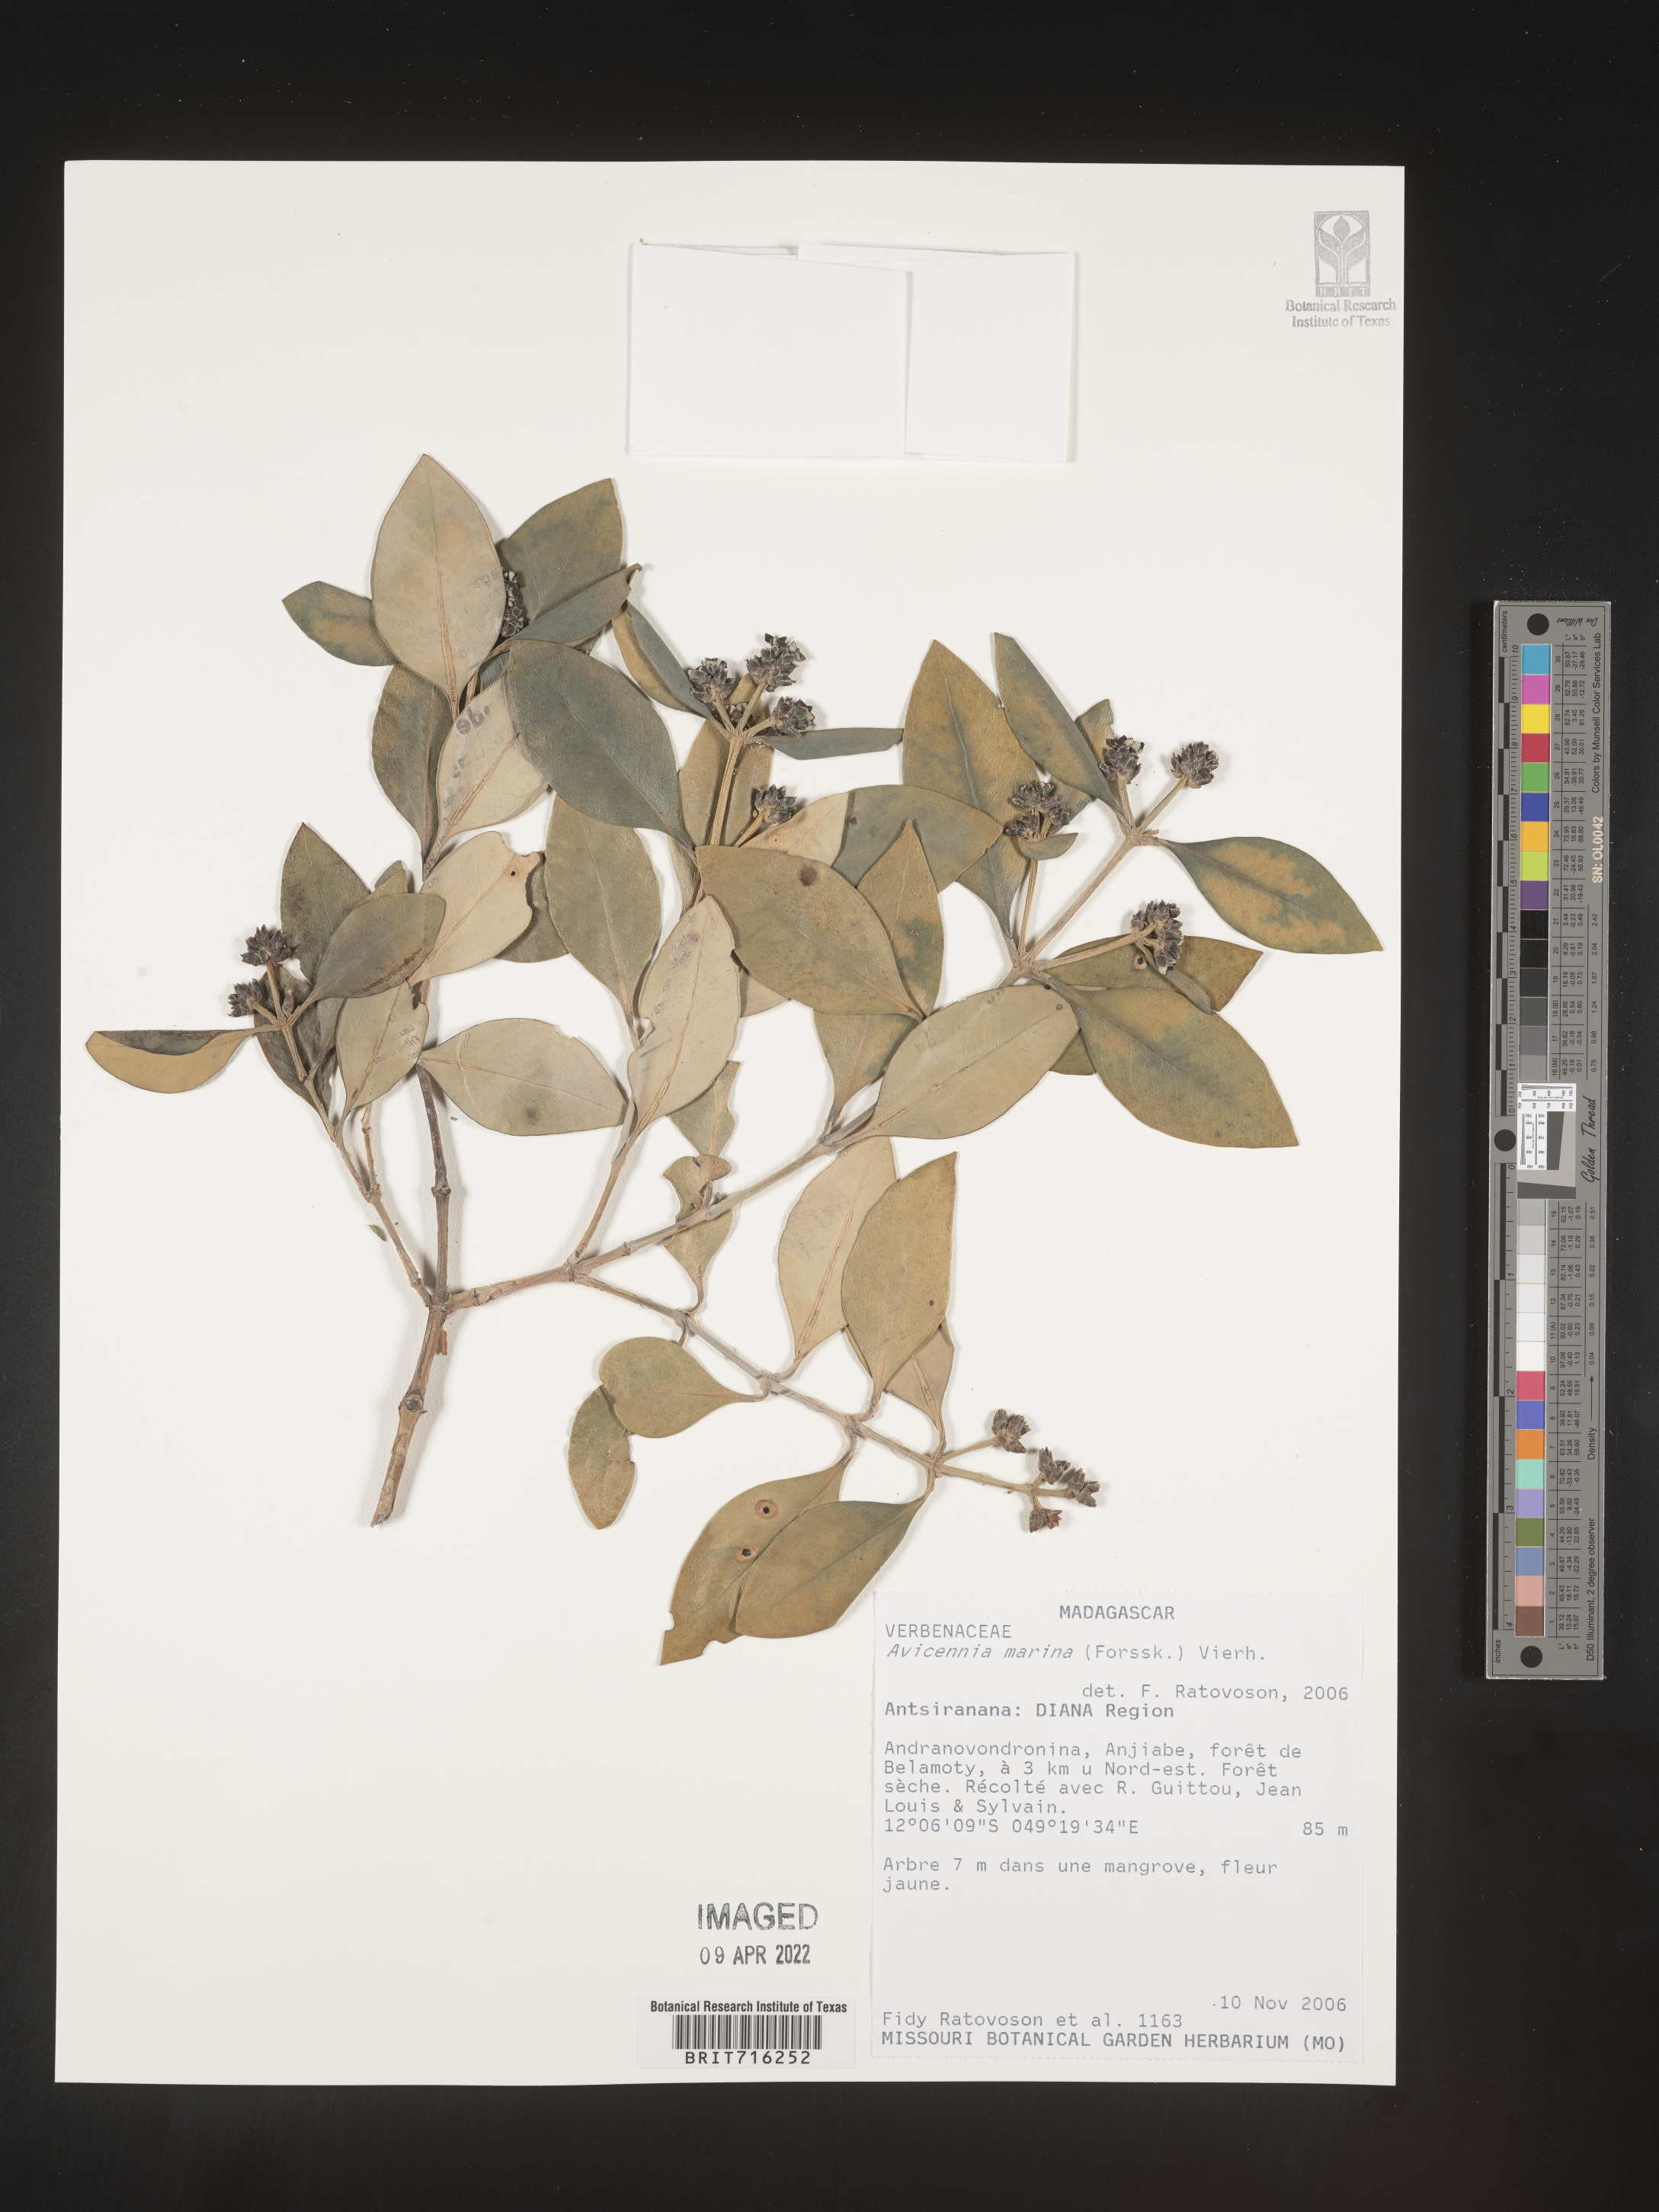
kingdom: Plantae
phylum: Tracheophyta
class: Magnoliopsida
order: Lamiales
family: Acanthaceae
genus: Avicennia
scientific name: Avicennia
